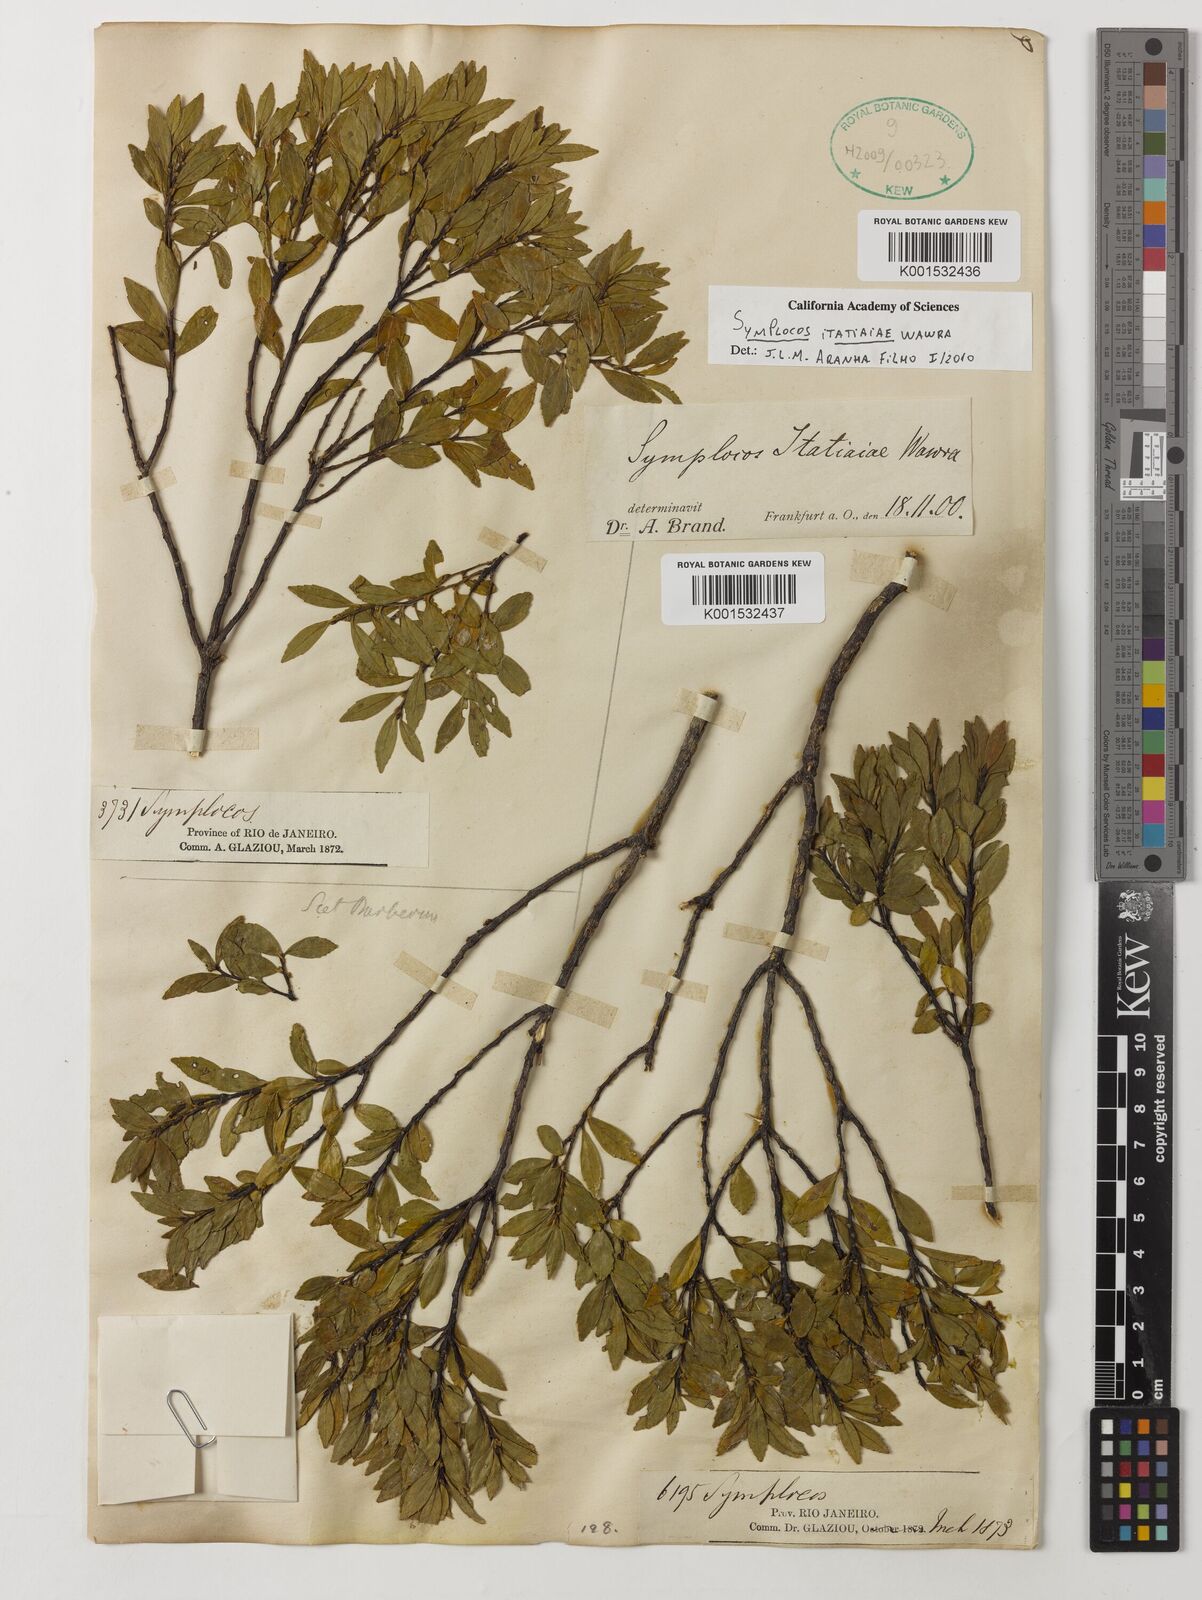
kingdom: Plantae
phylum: Tracheophyta
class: Magnoliopsida
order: Ericales
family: Symplocaceae
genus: Symplocos
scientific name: Symplocos itatiaiae
